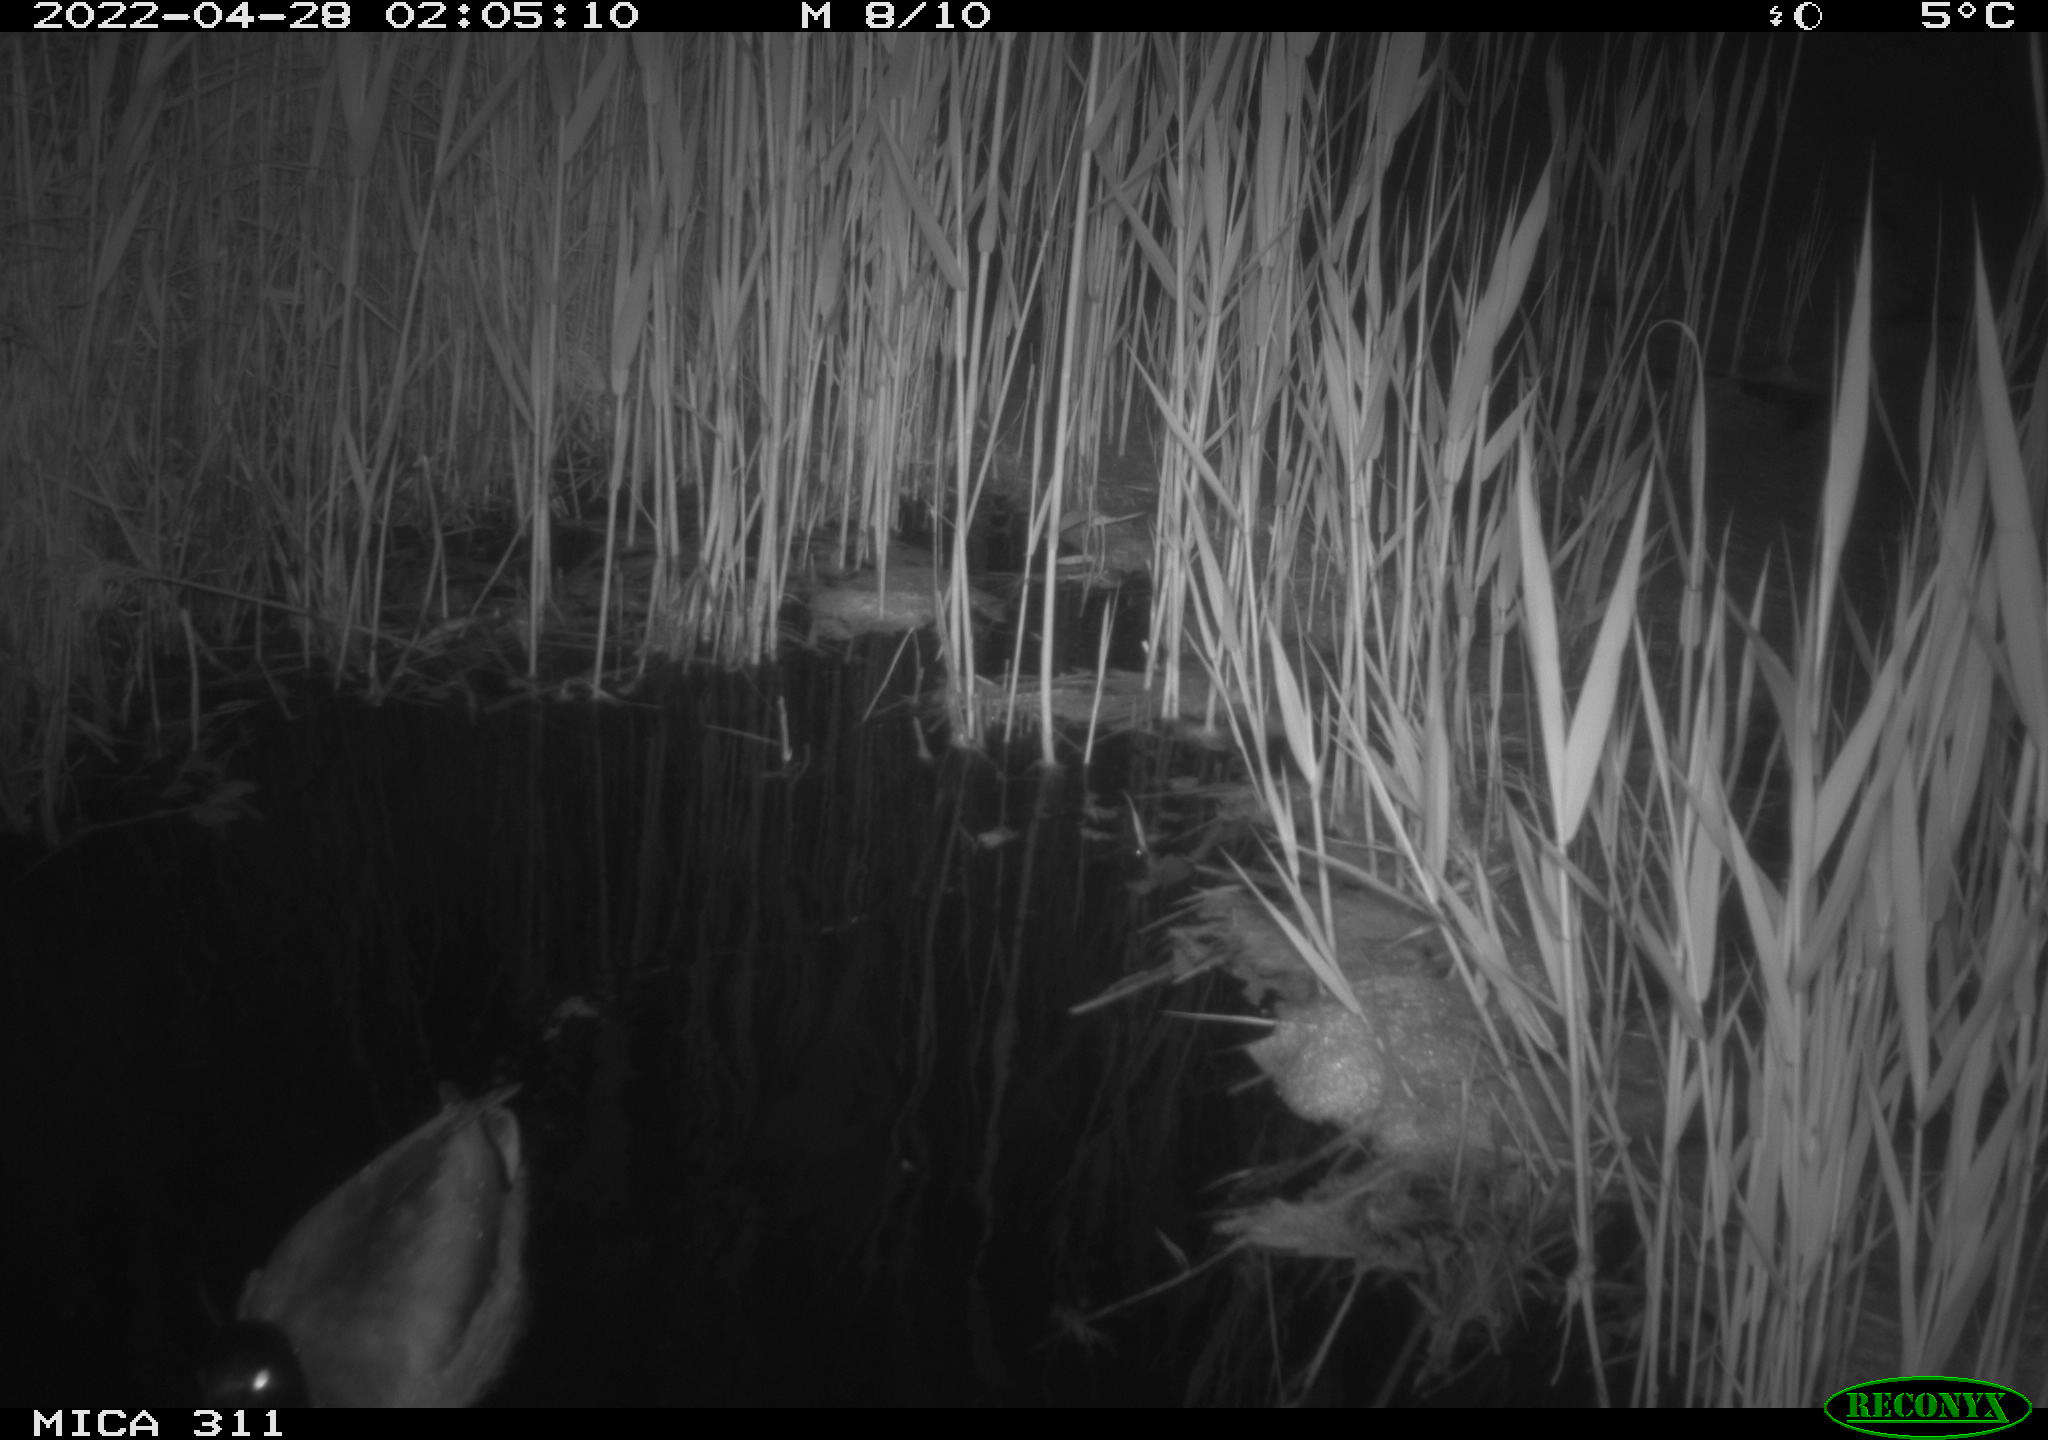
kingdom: Animalia
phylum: Chordata
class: Aves
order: Anseriformes
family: Anatidae
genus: Anas
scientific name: Anas platyrhynchos
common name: Mallard
